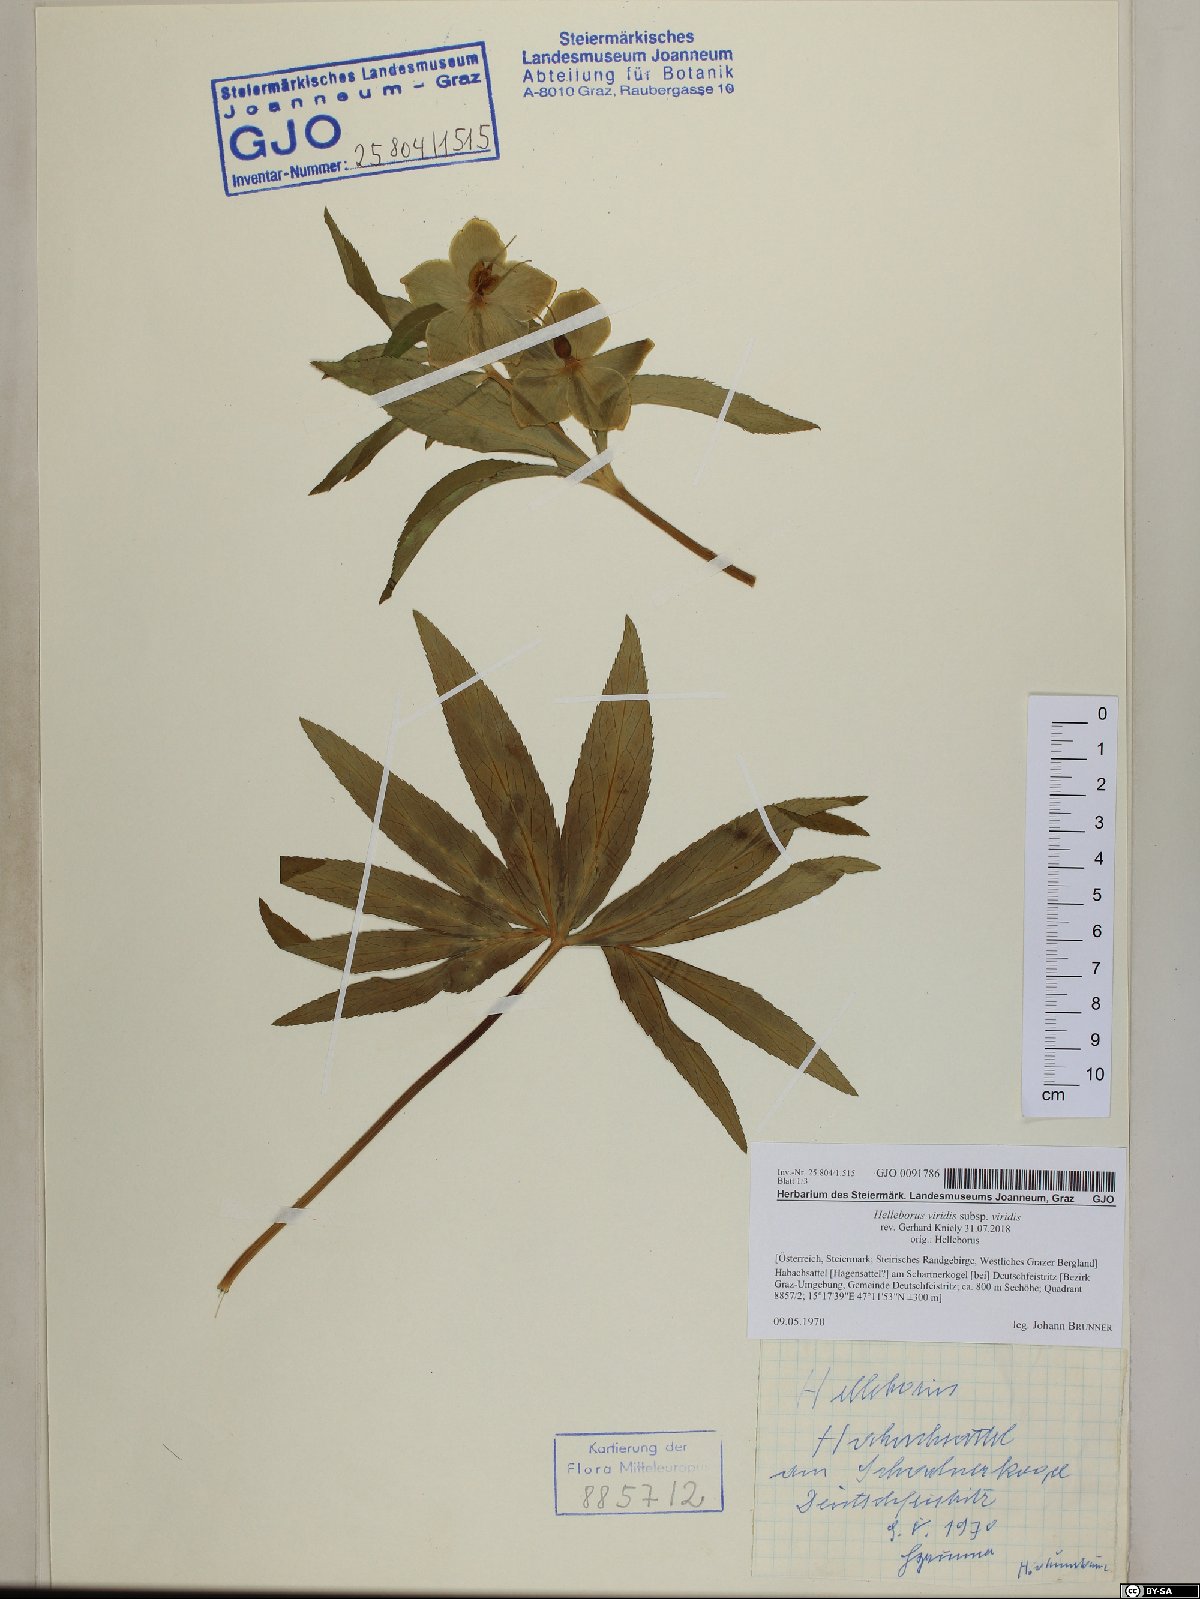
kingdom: Plantae
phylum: Tracheophyta
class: Magnoliopsida
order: Ranunculales
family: Ranunculaceae
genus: Helleborus
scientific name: Helleborus viridis
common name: Green hellebore
